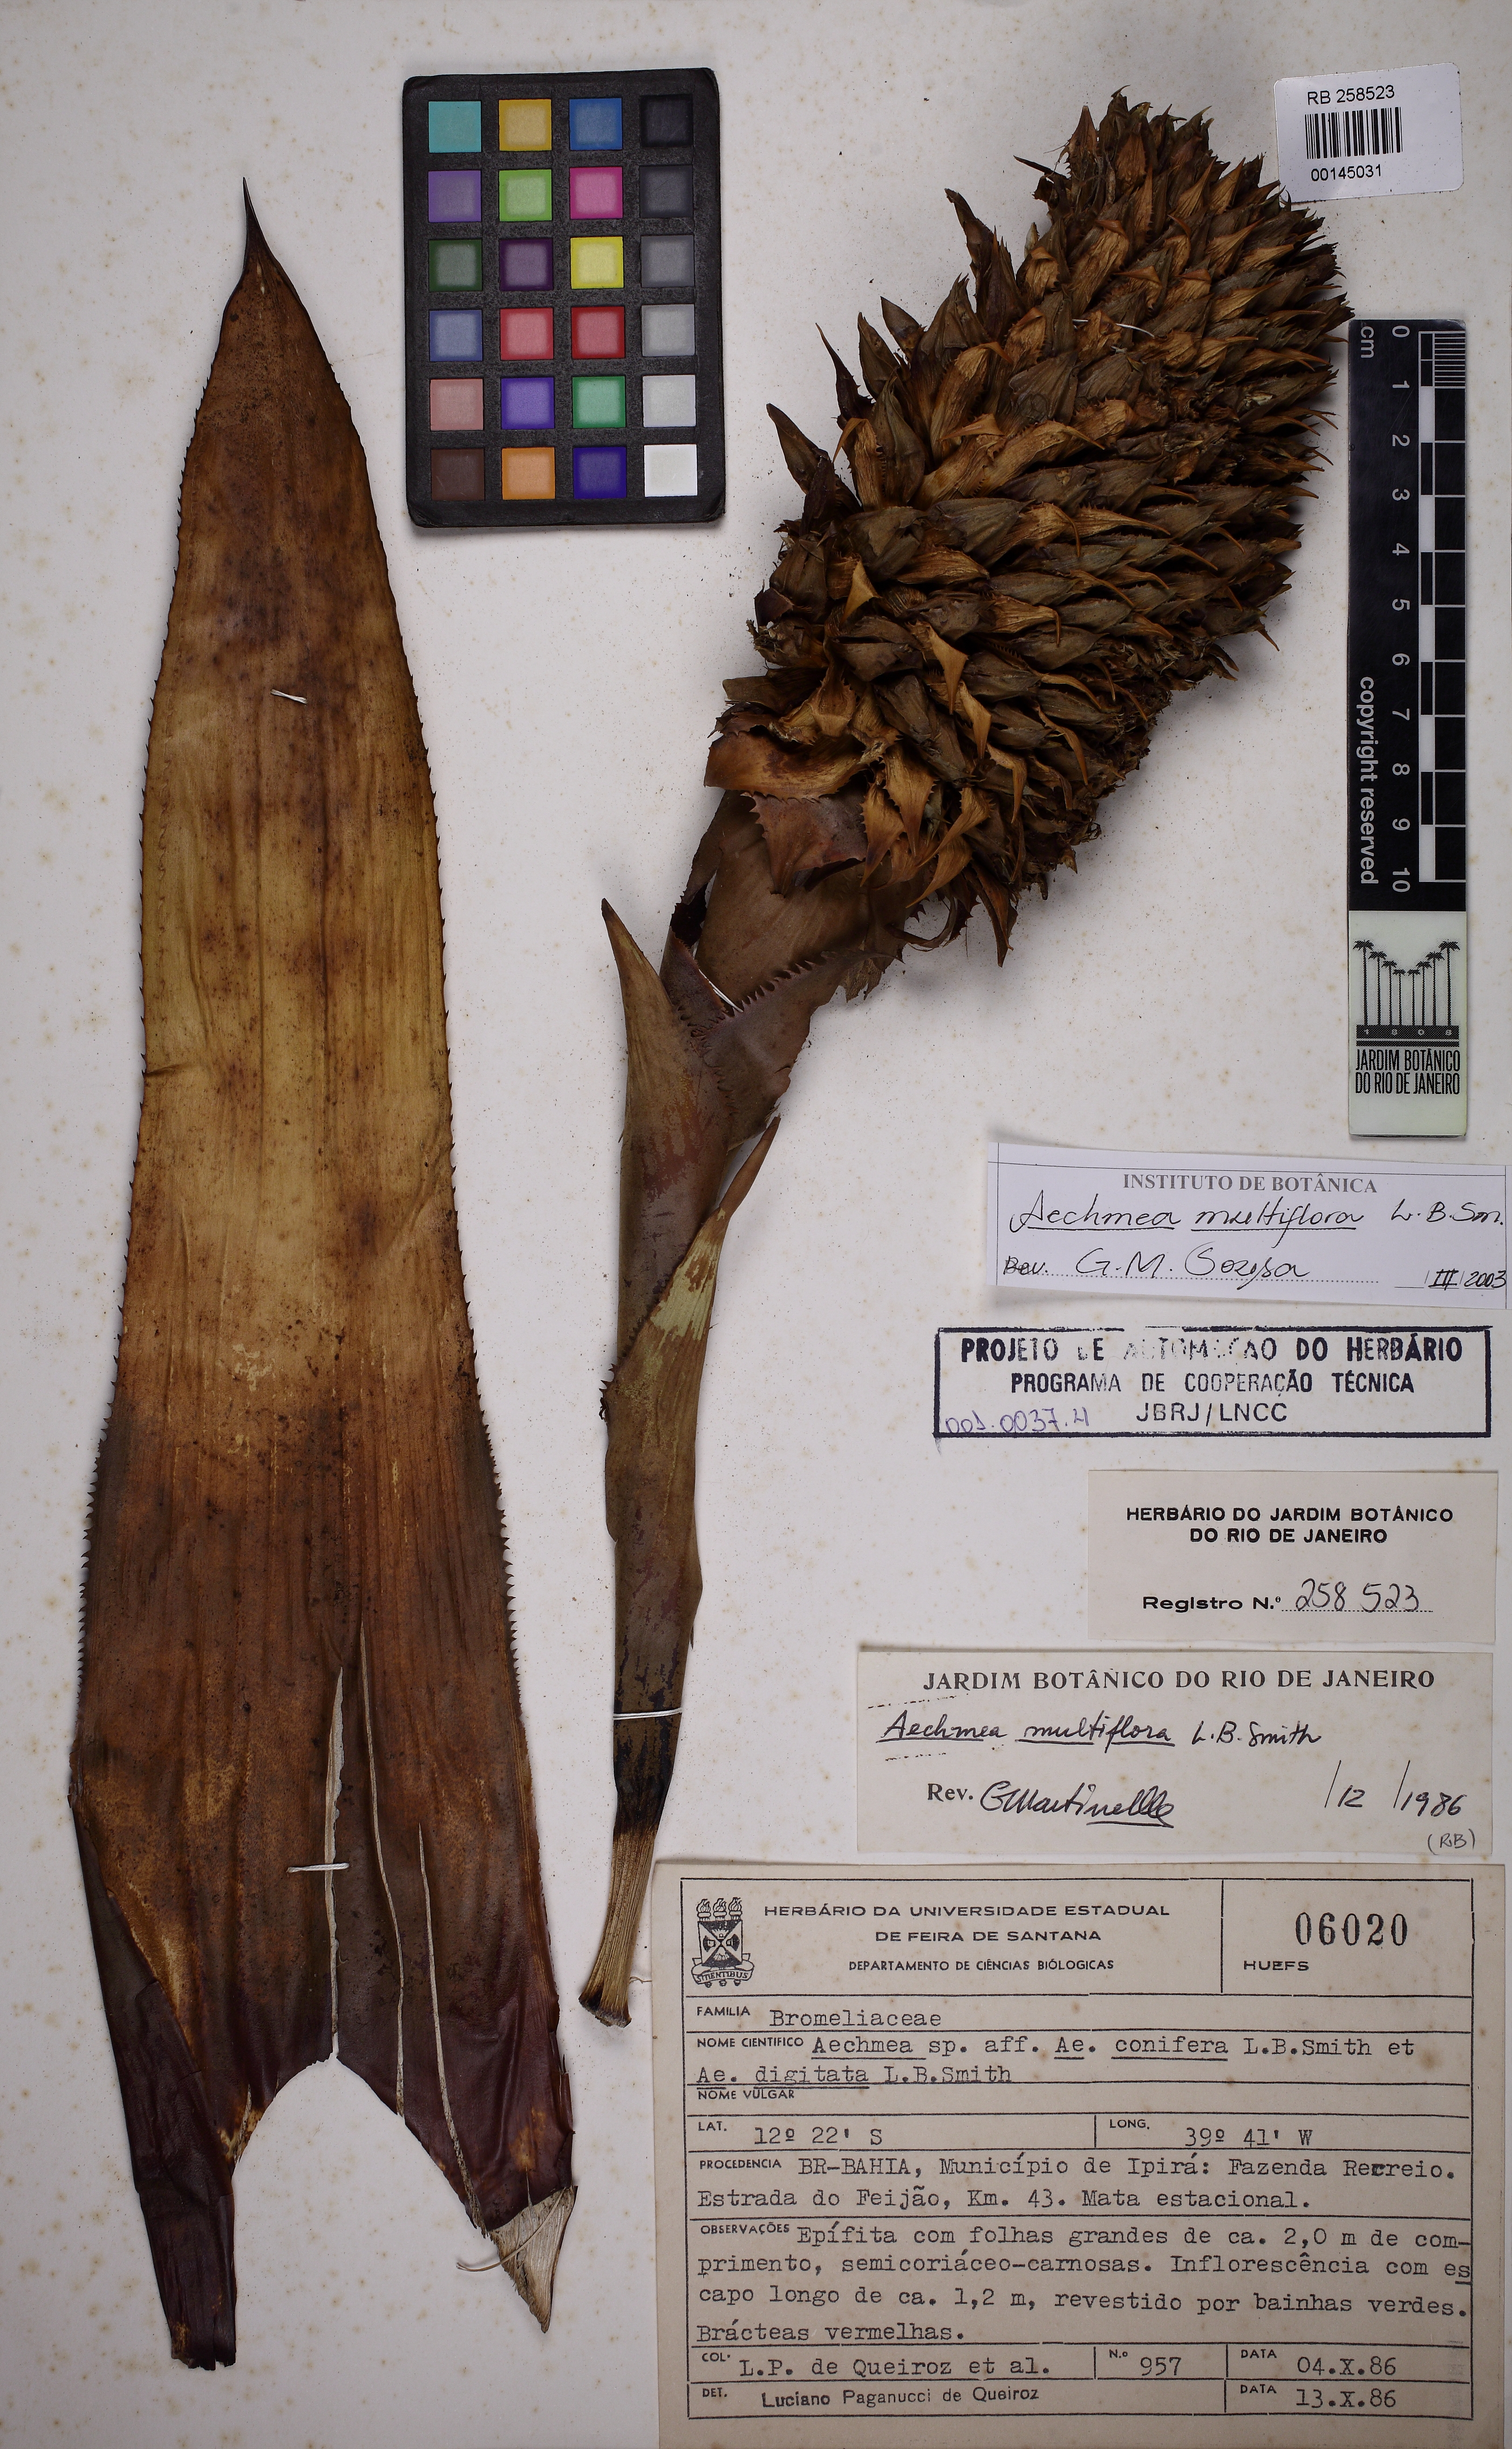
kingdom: Plantae
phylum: Tracheophyta
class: Liliopsida
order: Poales
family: Bromeliaceae
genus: Karawata
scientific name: Karawata multiflora
